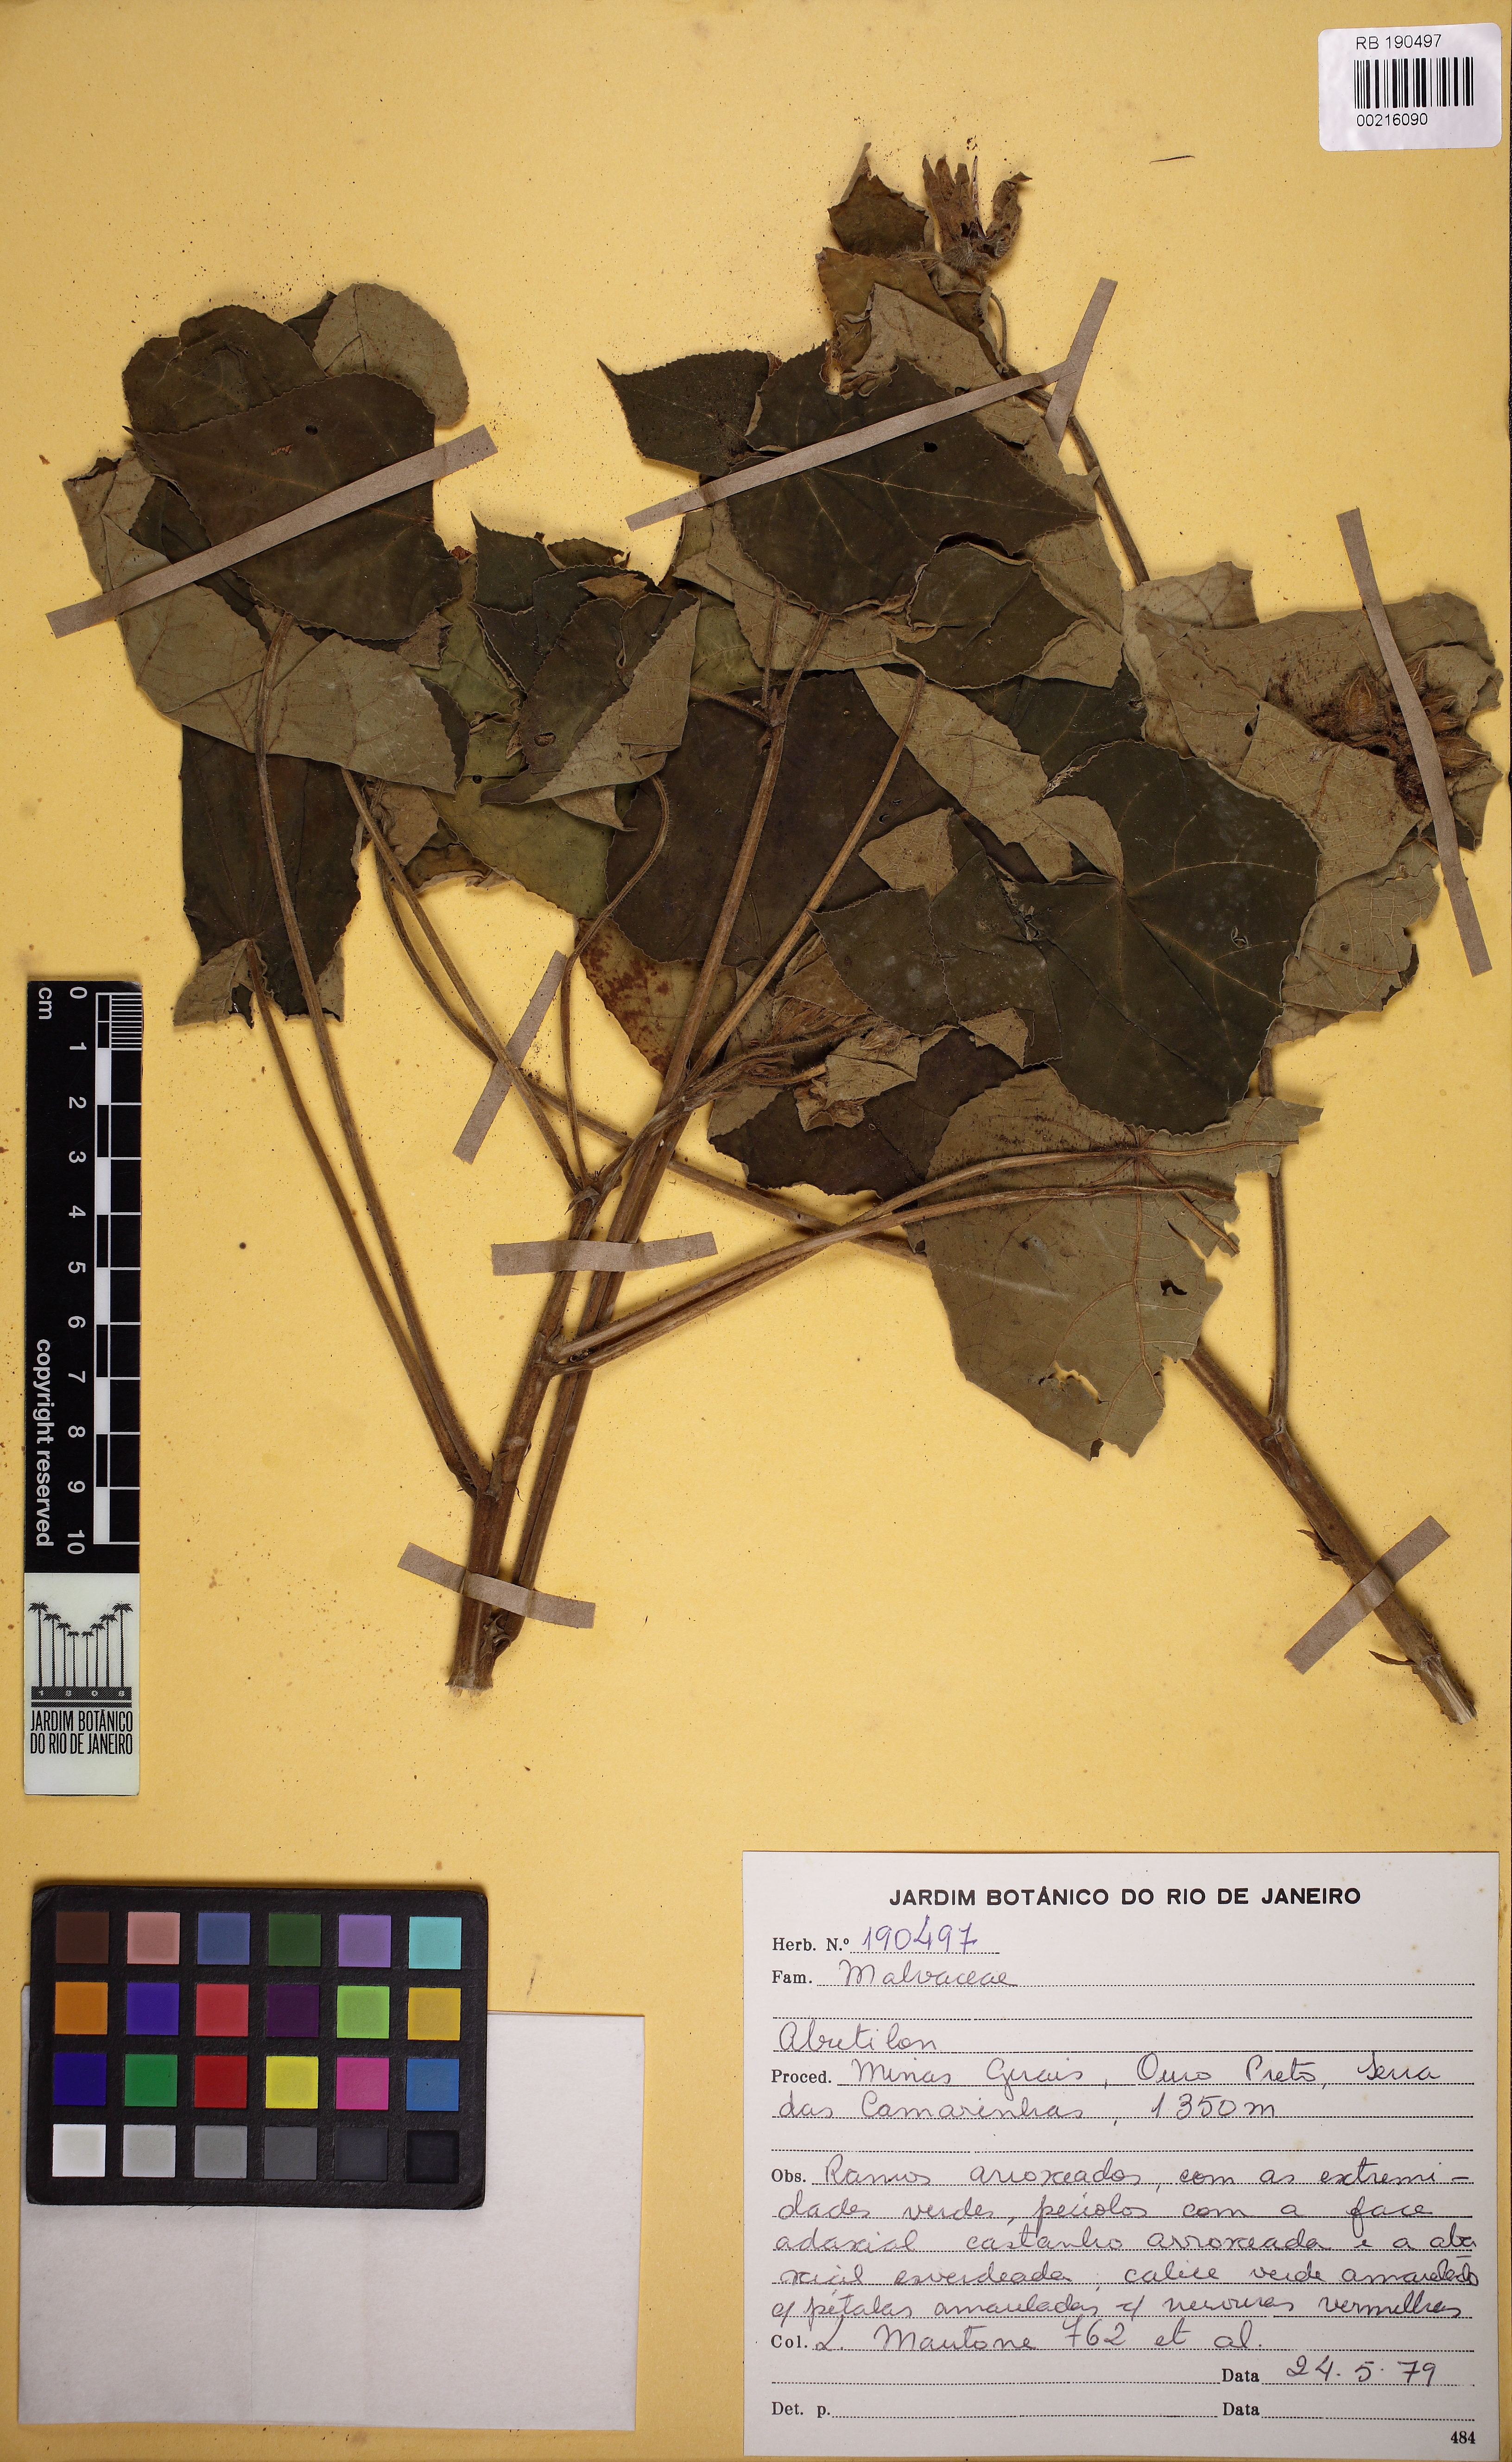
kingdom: Plantae
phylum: Tracheophyta
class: Magnoliopsida
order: Malvales
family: Malvaceae
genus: Callianthe
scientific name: Callianthe bedfordiana
